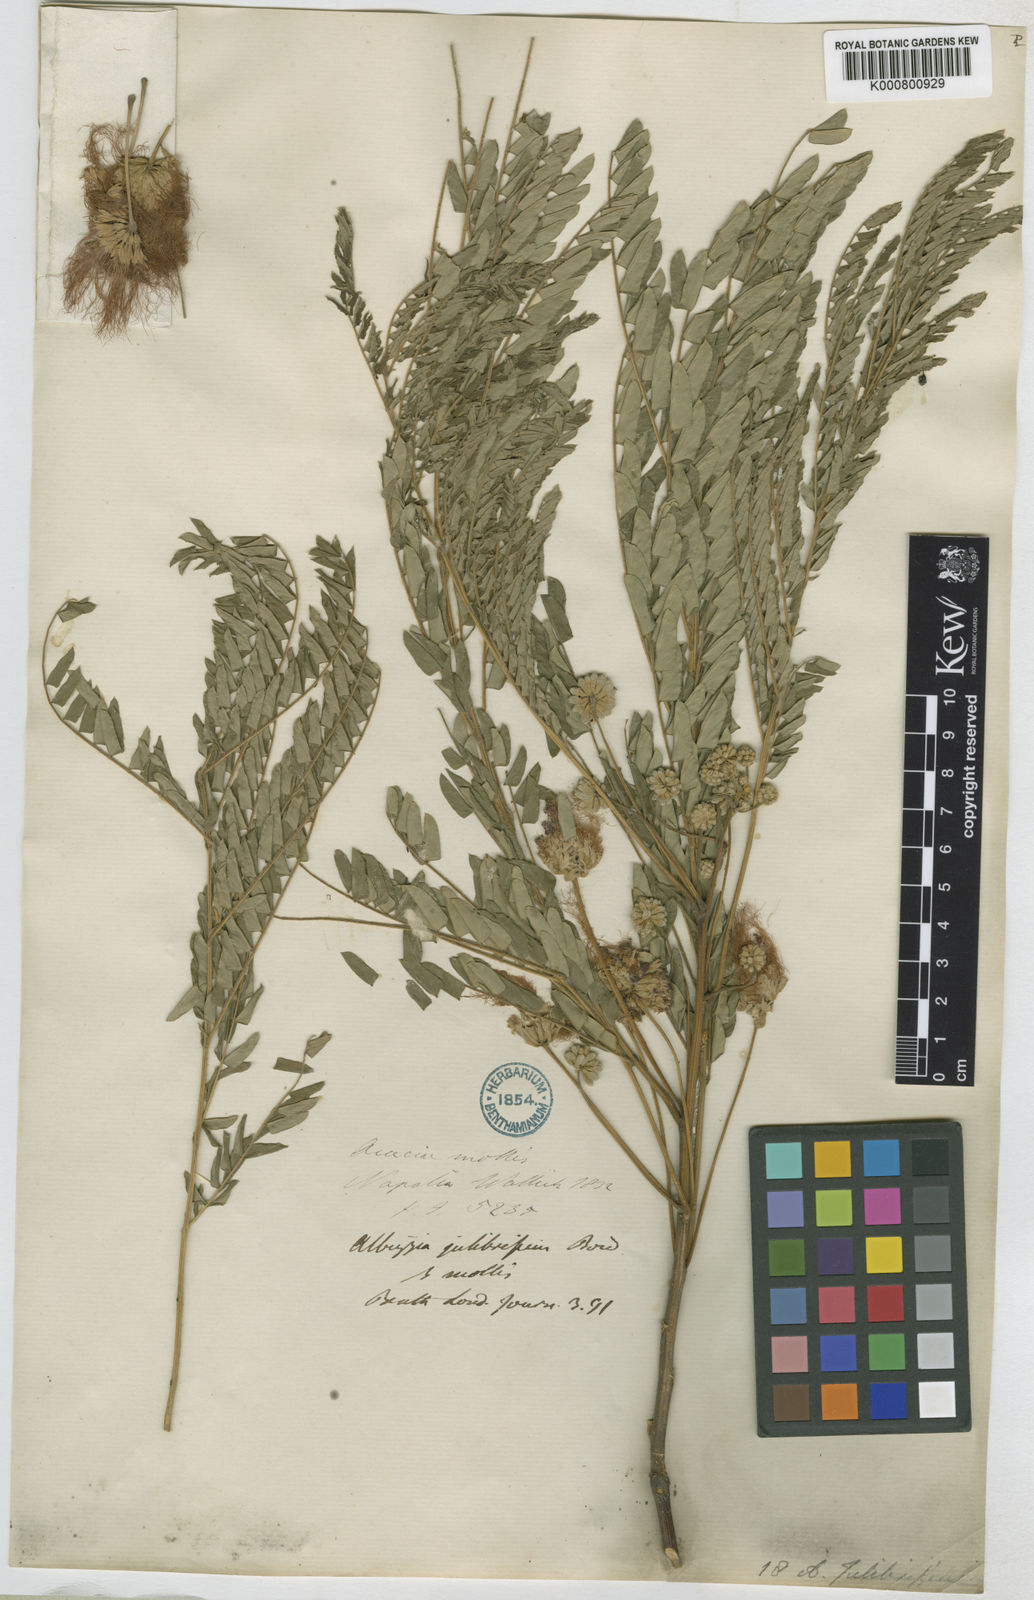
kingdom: Plantae
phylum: Tracheophyta
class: Magnoliopsida
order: Fabales
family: Fabaceae
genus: Albizia
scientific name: Albizia julibrissin
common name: Silktree
